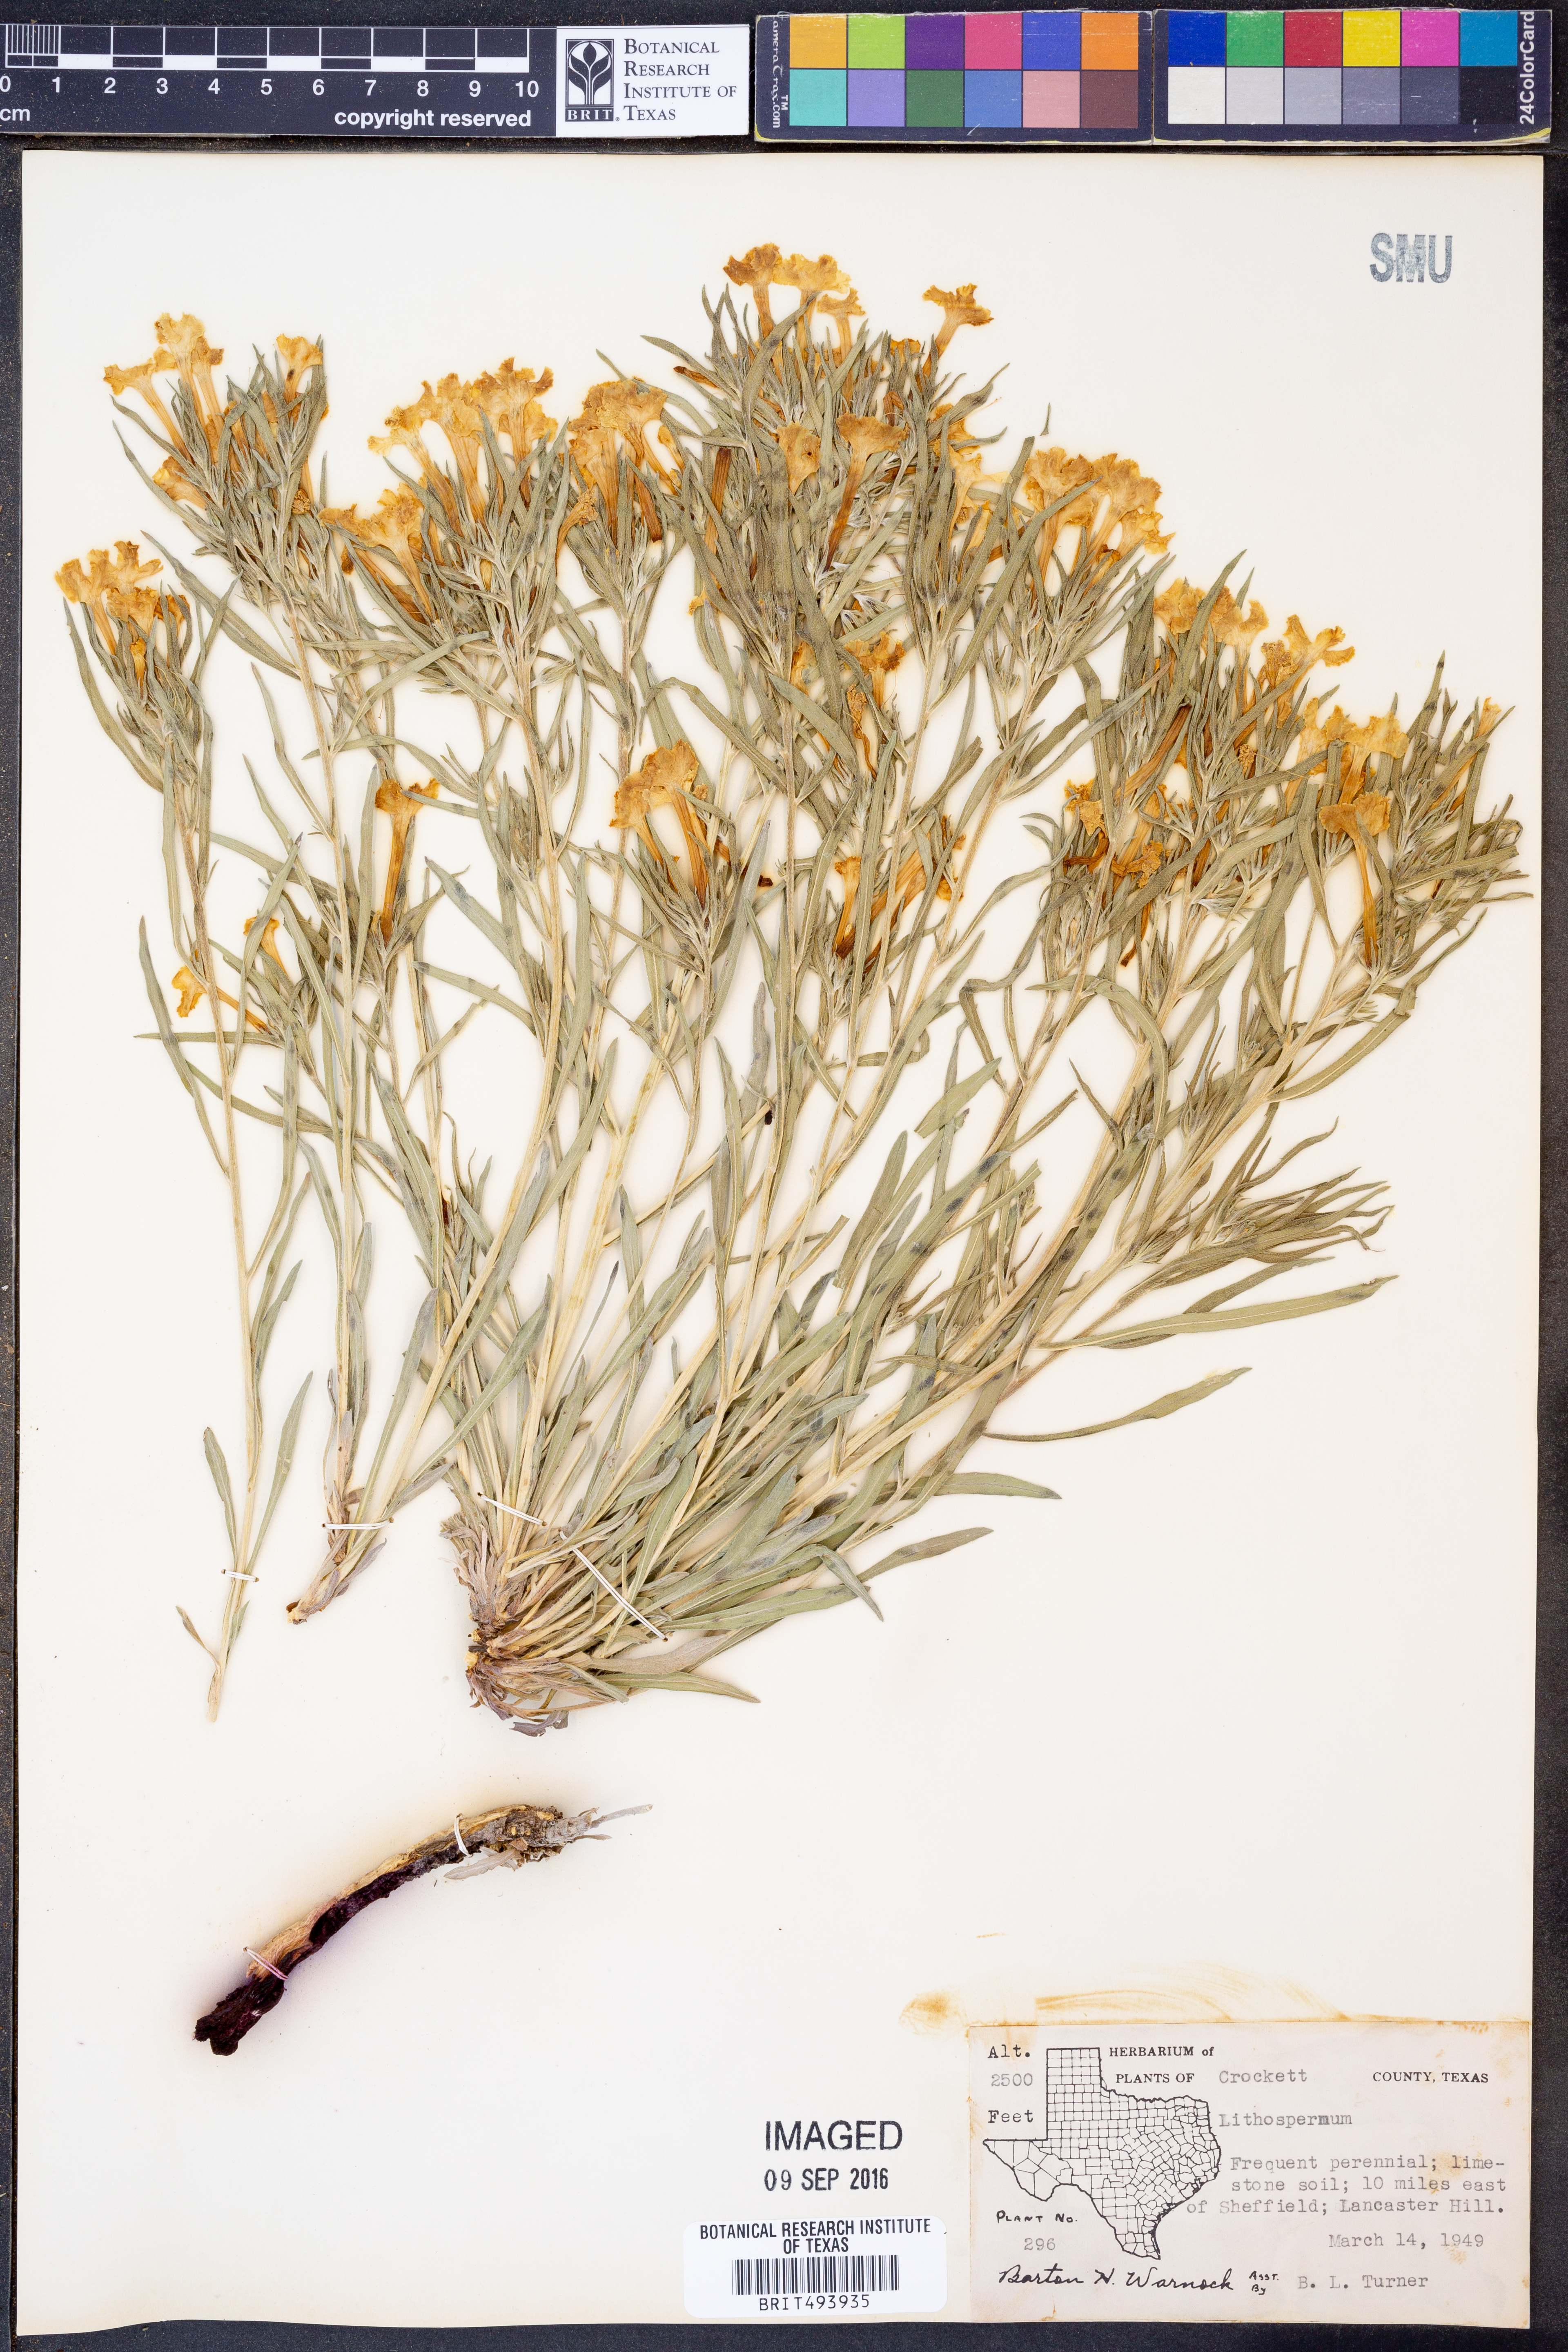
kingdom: Plantae
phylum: Tracheophyta
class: Magnoliopsida
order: Boraginales
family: Boraginaceae
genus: Lithospermum
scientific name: Lithospermum
